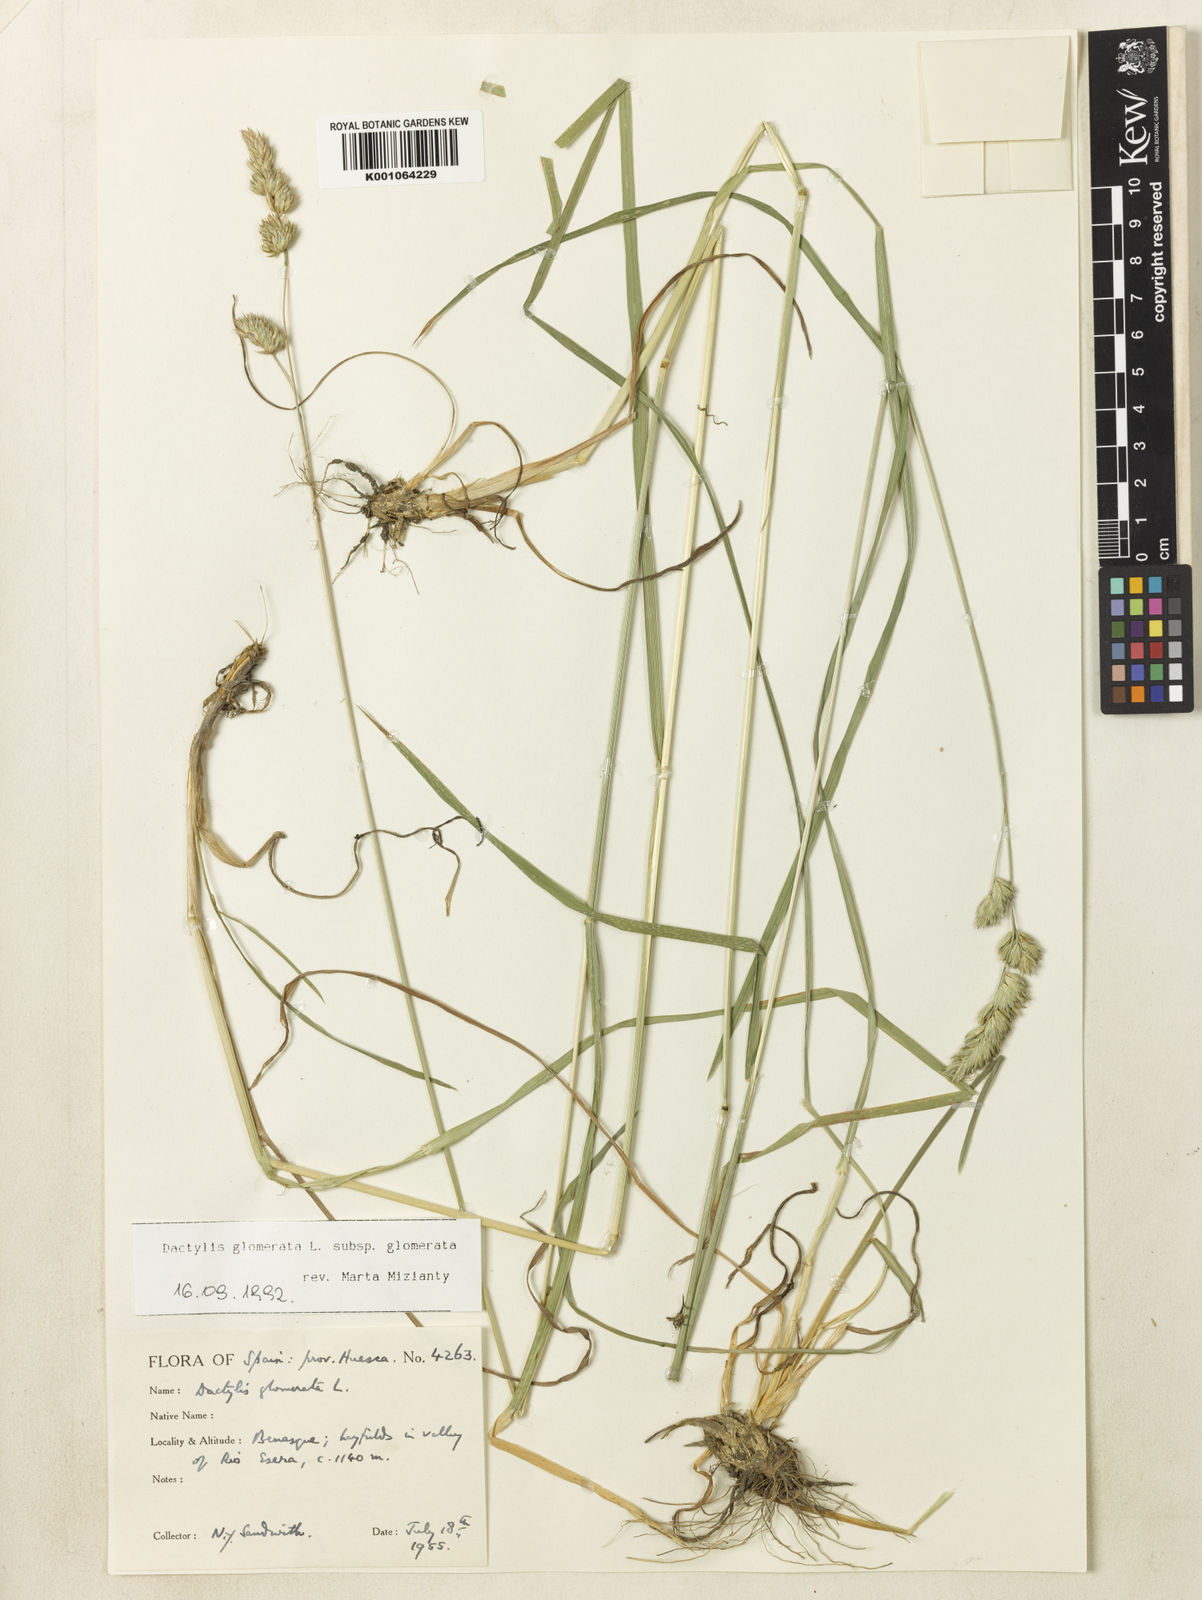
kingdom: Plantae
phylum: Tracheophyta
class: Liliopsida
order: Poales
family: Poaceae
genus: Dactylis
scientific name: Dactylis glomerata
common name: Orchardgrass
